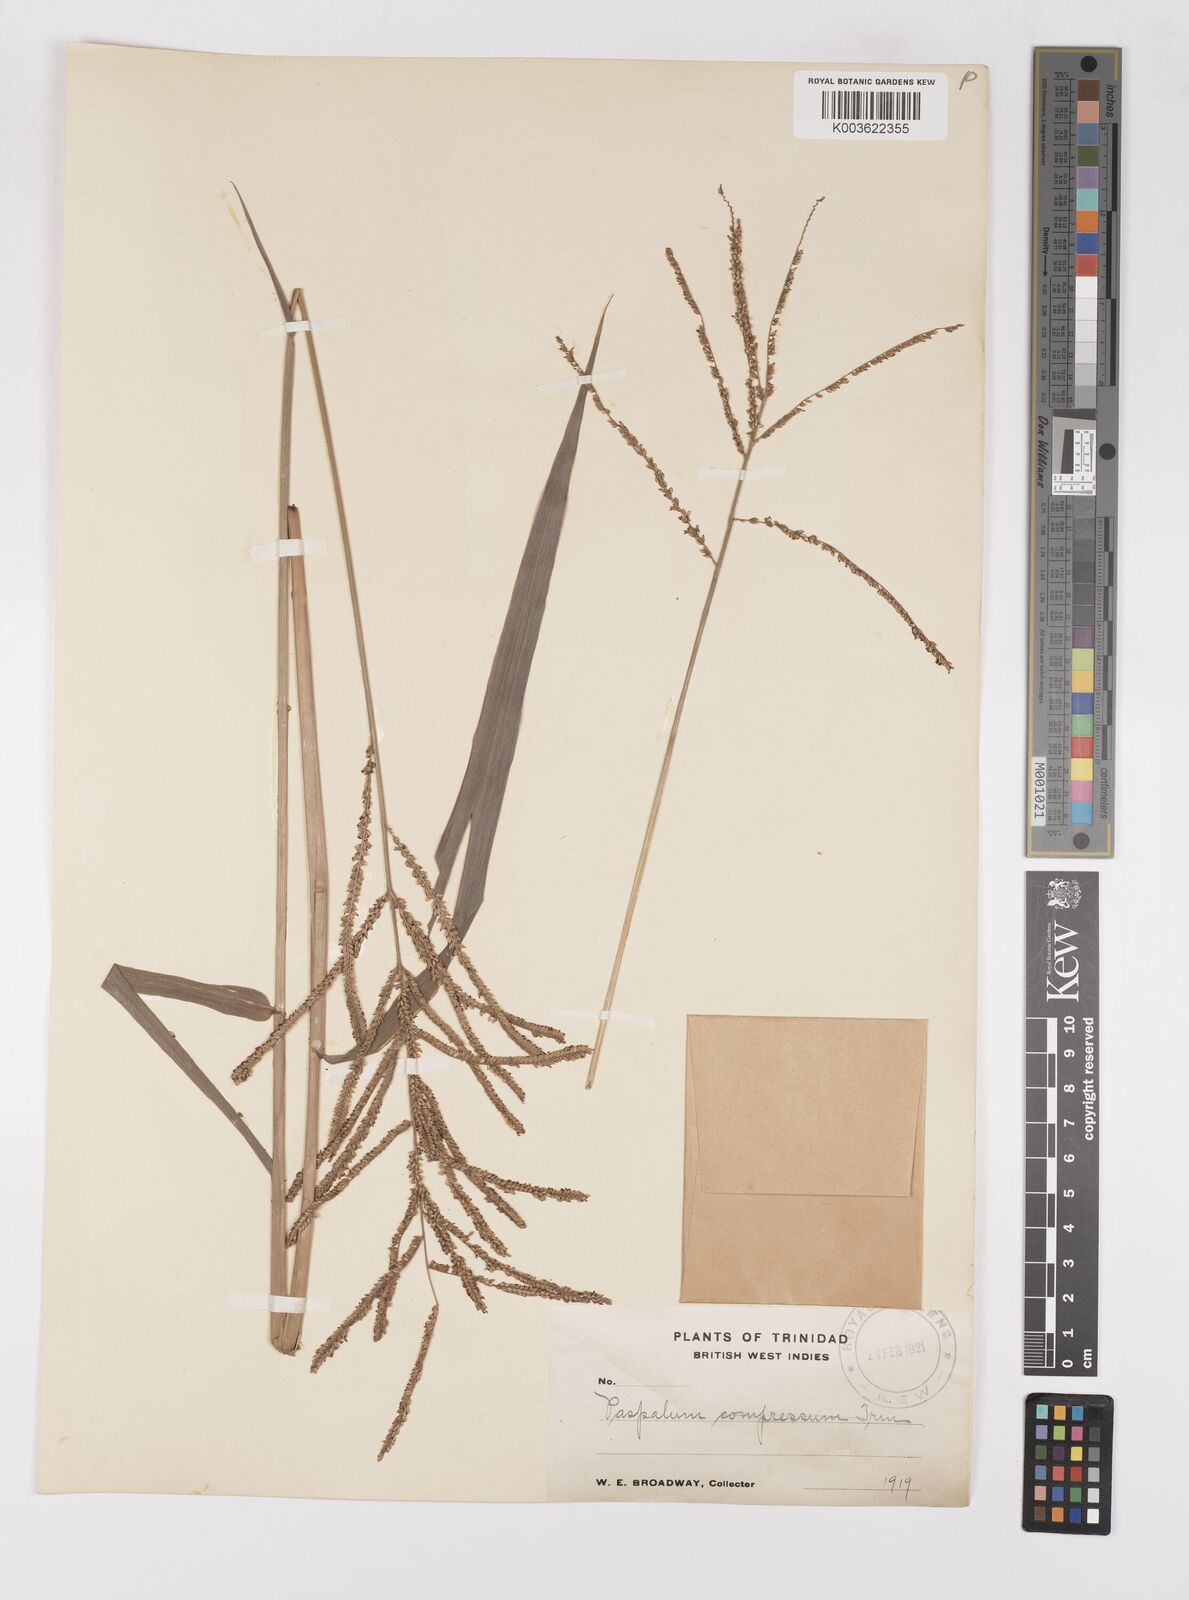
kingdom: Plantae
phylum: Tracheophyta
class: Liliopsida
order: Poales
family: Poaceae
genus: Paspalum
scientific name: Paspalum coryphaeum
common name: Emperor crowngrass
